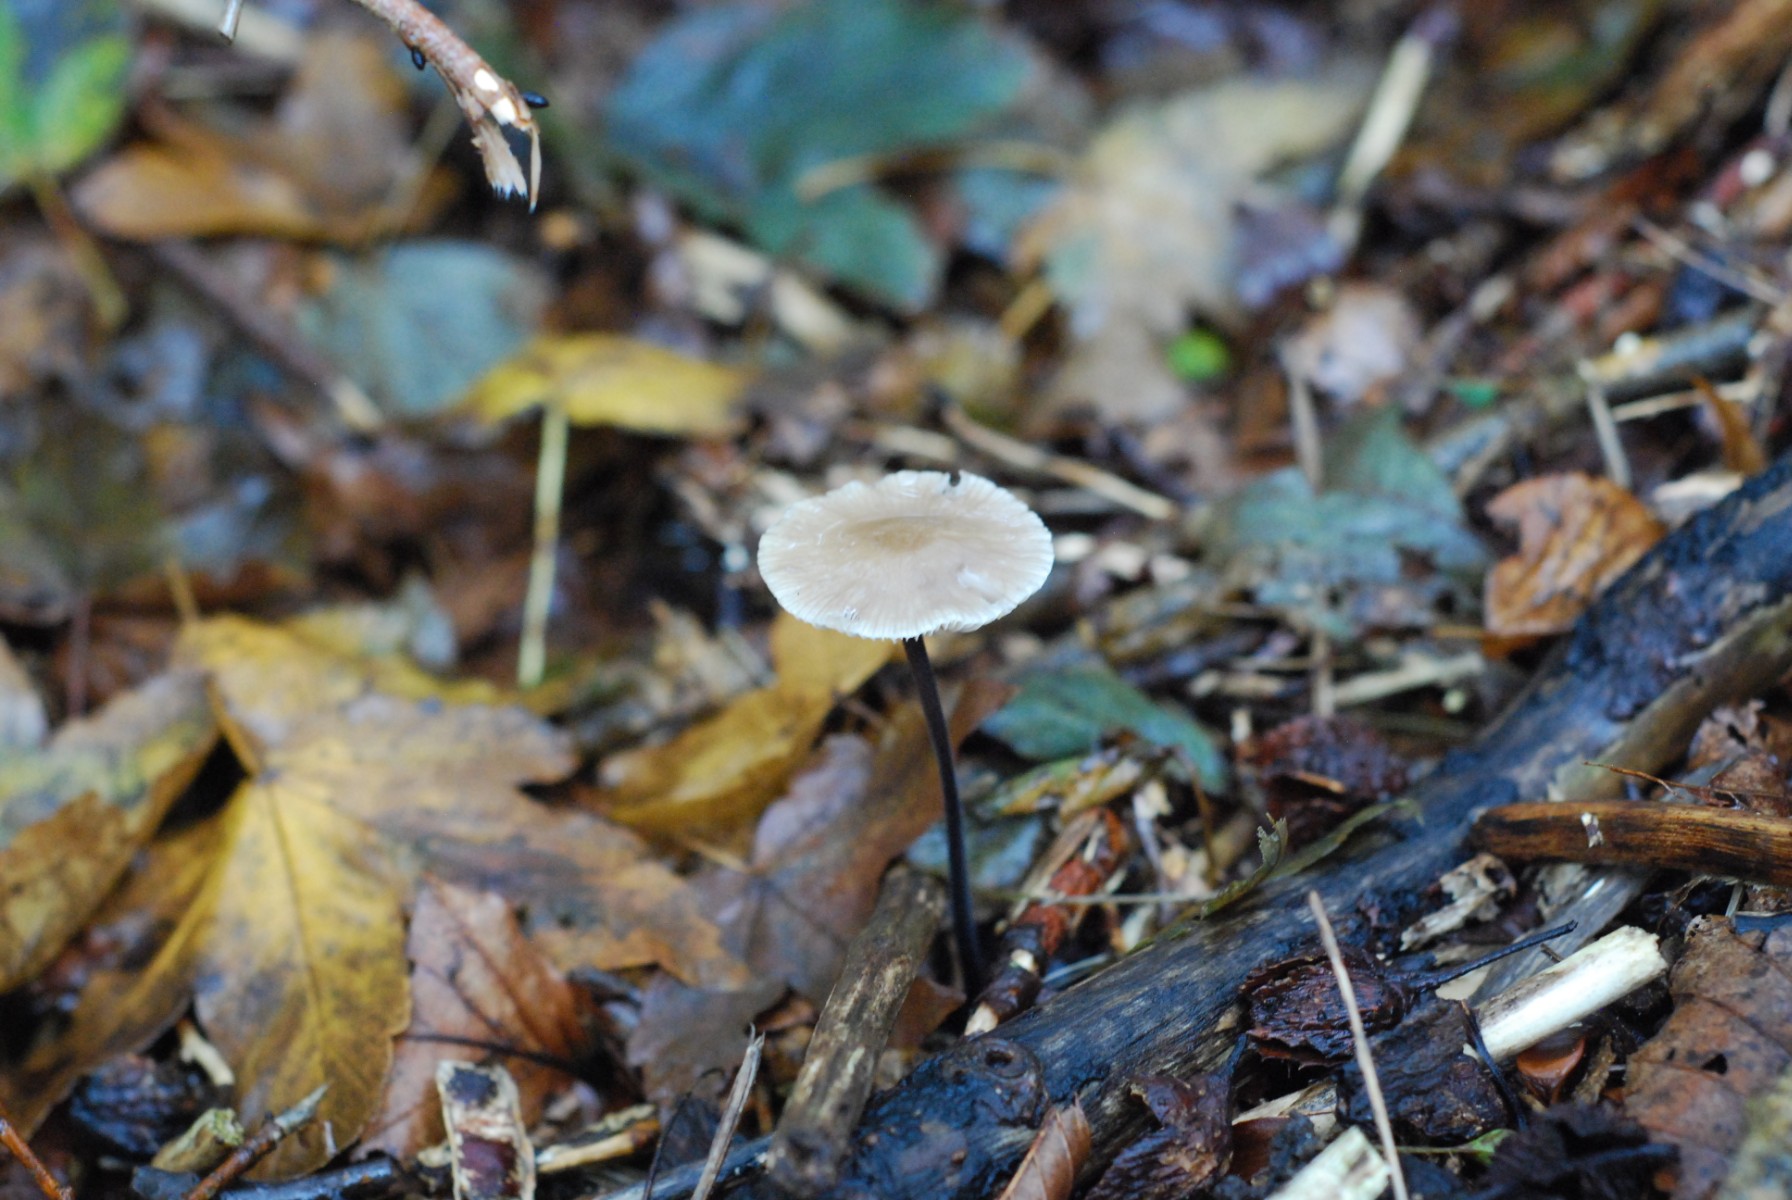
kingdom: Fungi
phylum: Basidiomycota
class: Agaricomycetes
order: Agaricales
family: Omphalotaceae
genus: Mycetinis
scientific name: Mycetinis alliaceus
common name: stor løghat
